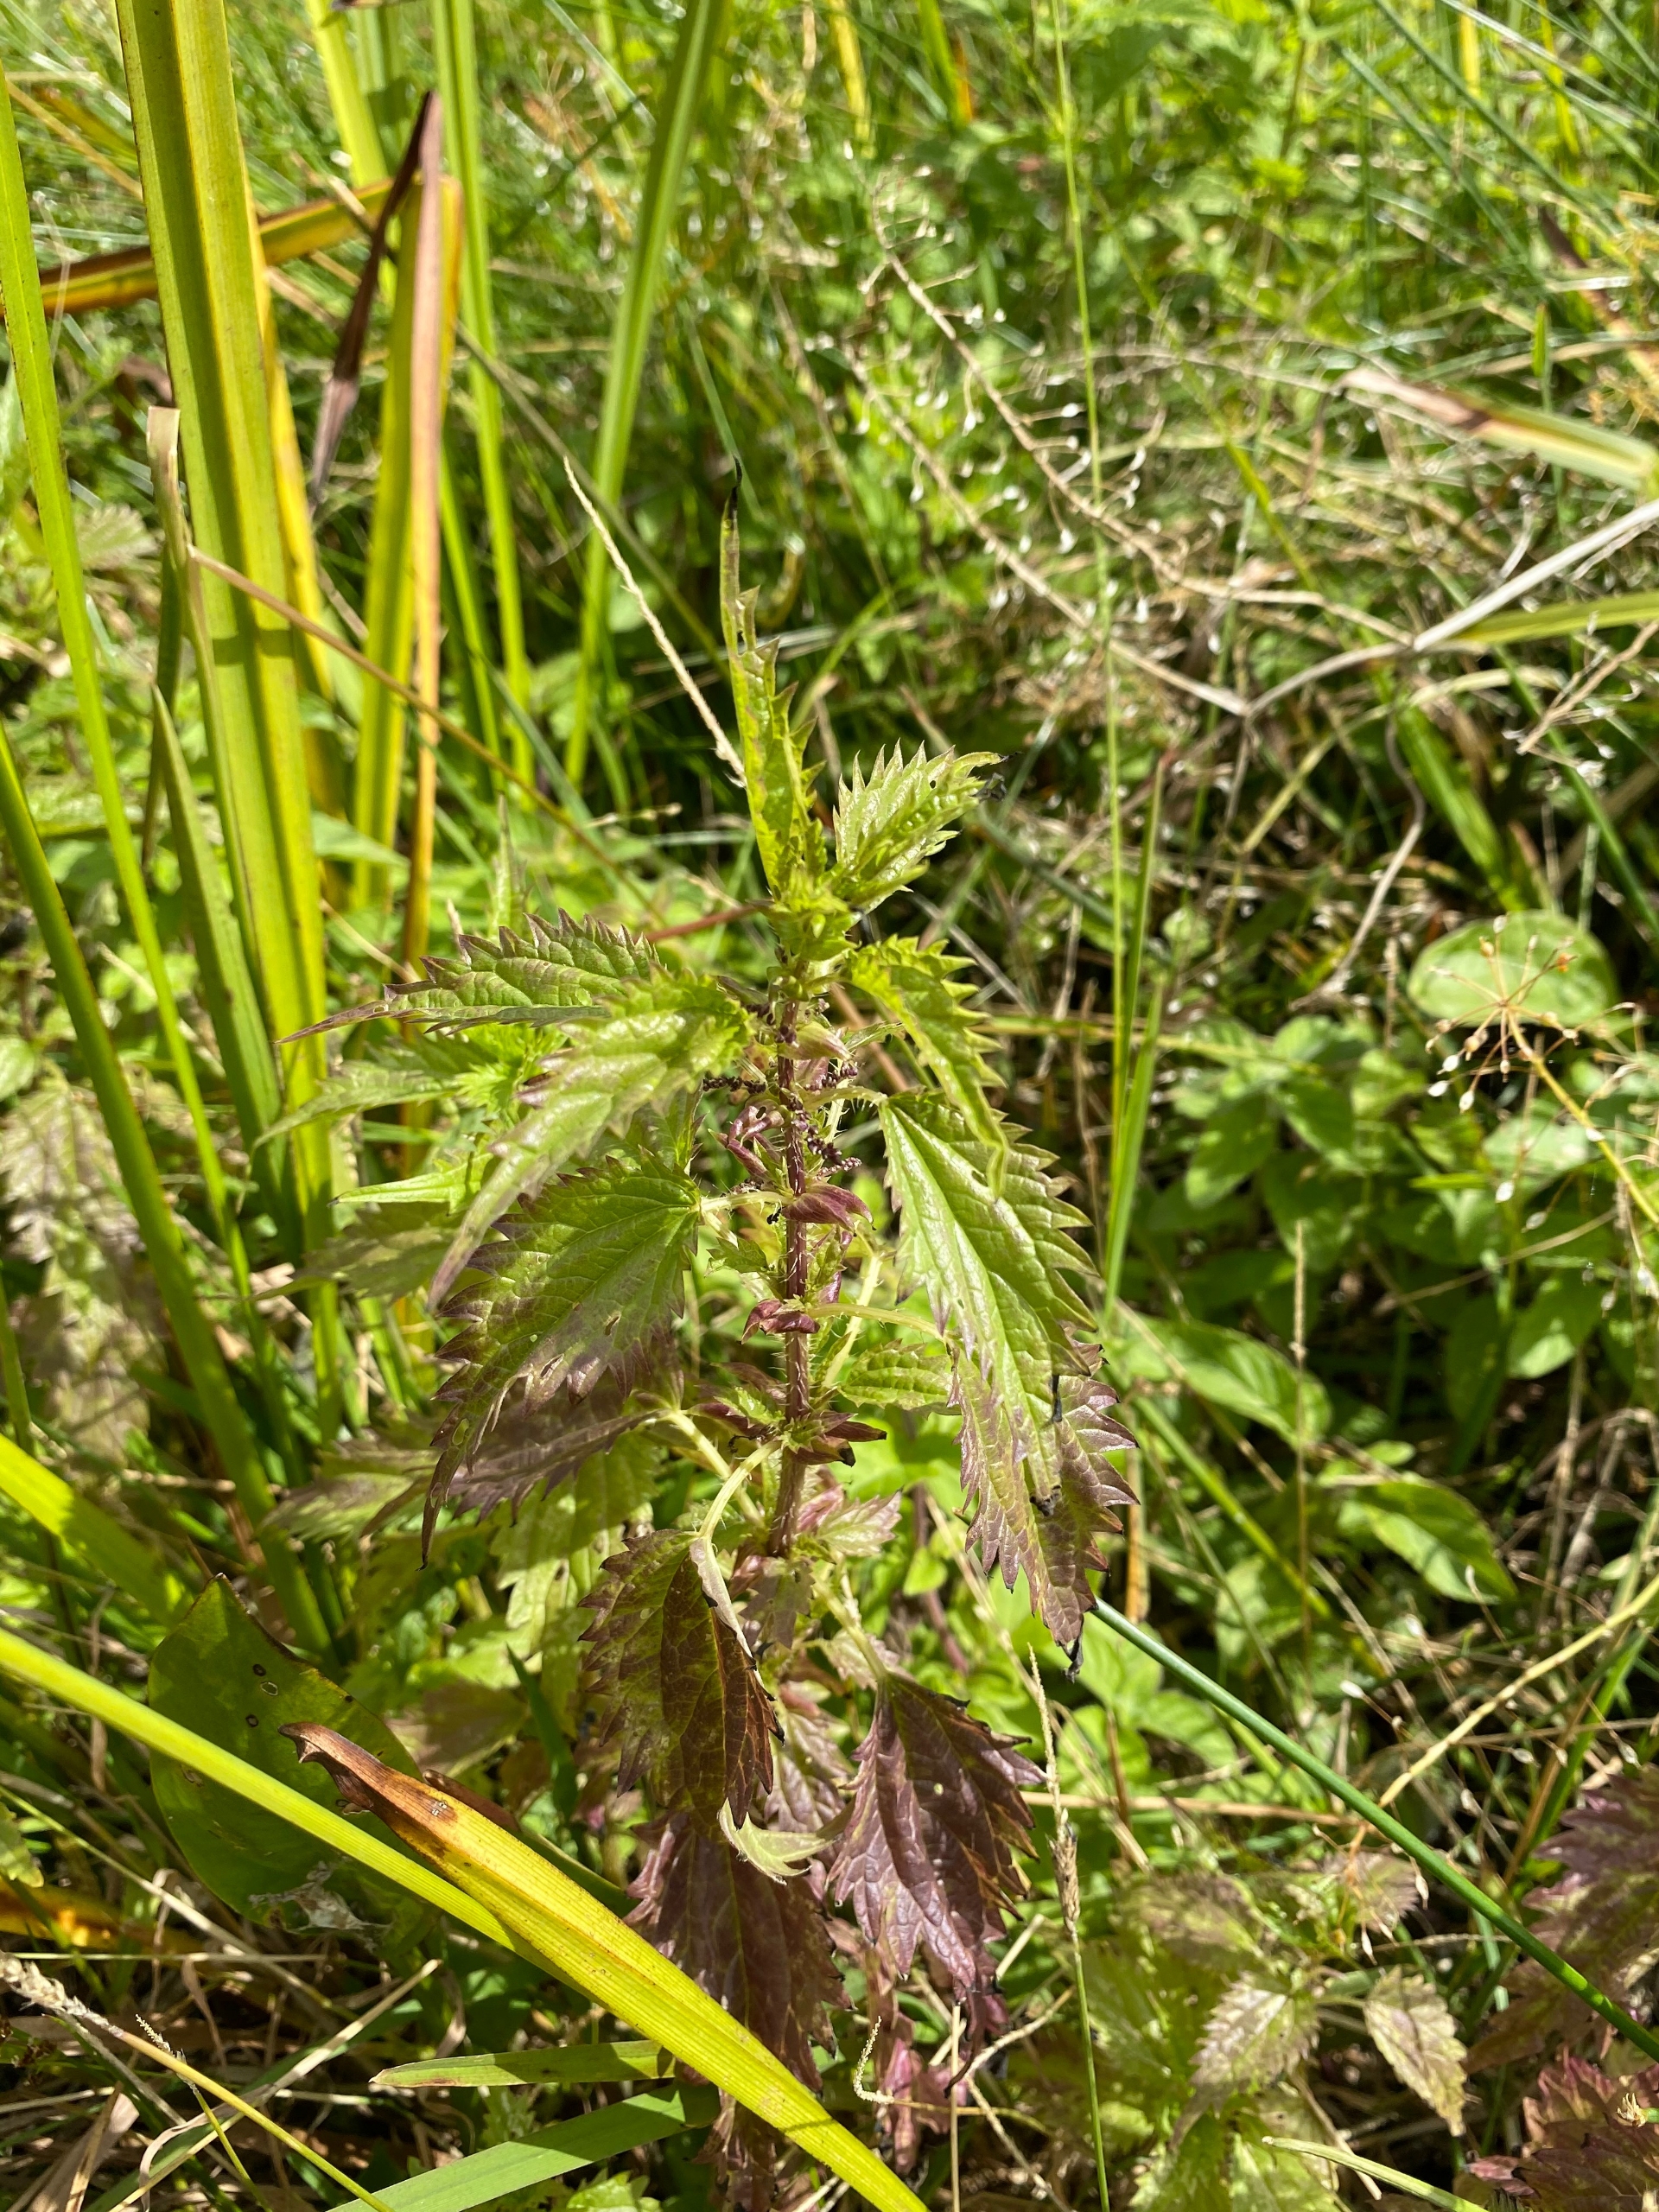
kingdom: Plantae
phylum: Tracheophyta
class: Magnoliopsida
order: Rosales
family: Urticaceae
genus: Urtica
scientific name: Urtica kioviensis
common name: Sump-nælde
